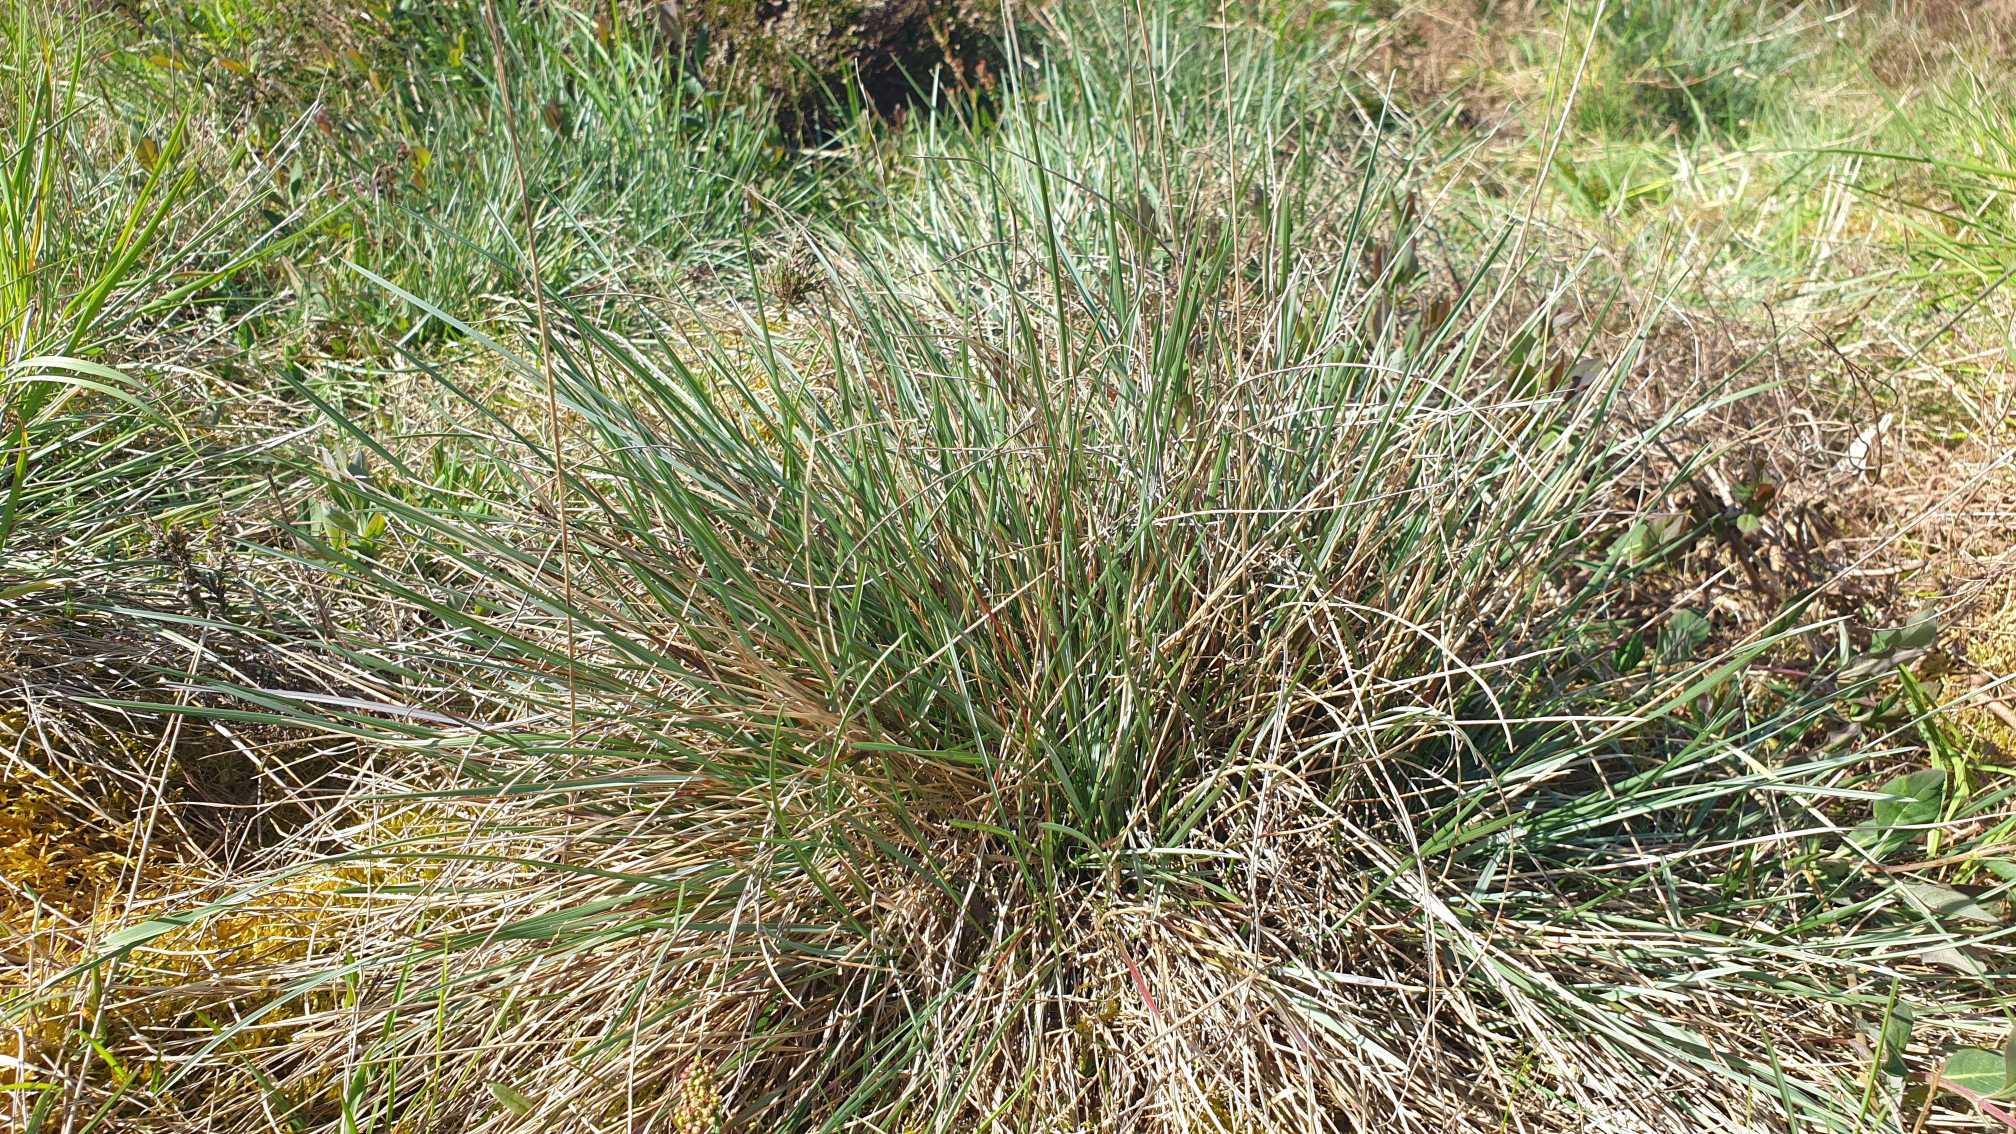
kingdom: Plantae
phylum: Tracheophyta
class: Liliopsida
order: Poales
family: Poaceae
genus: Helictochloa
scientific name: Helictochloa pratensis
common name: Eng-havre
